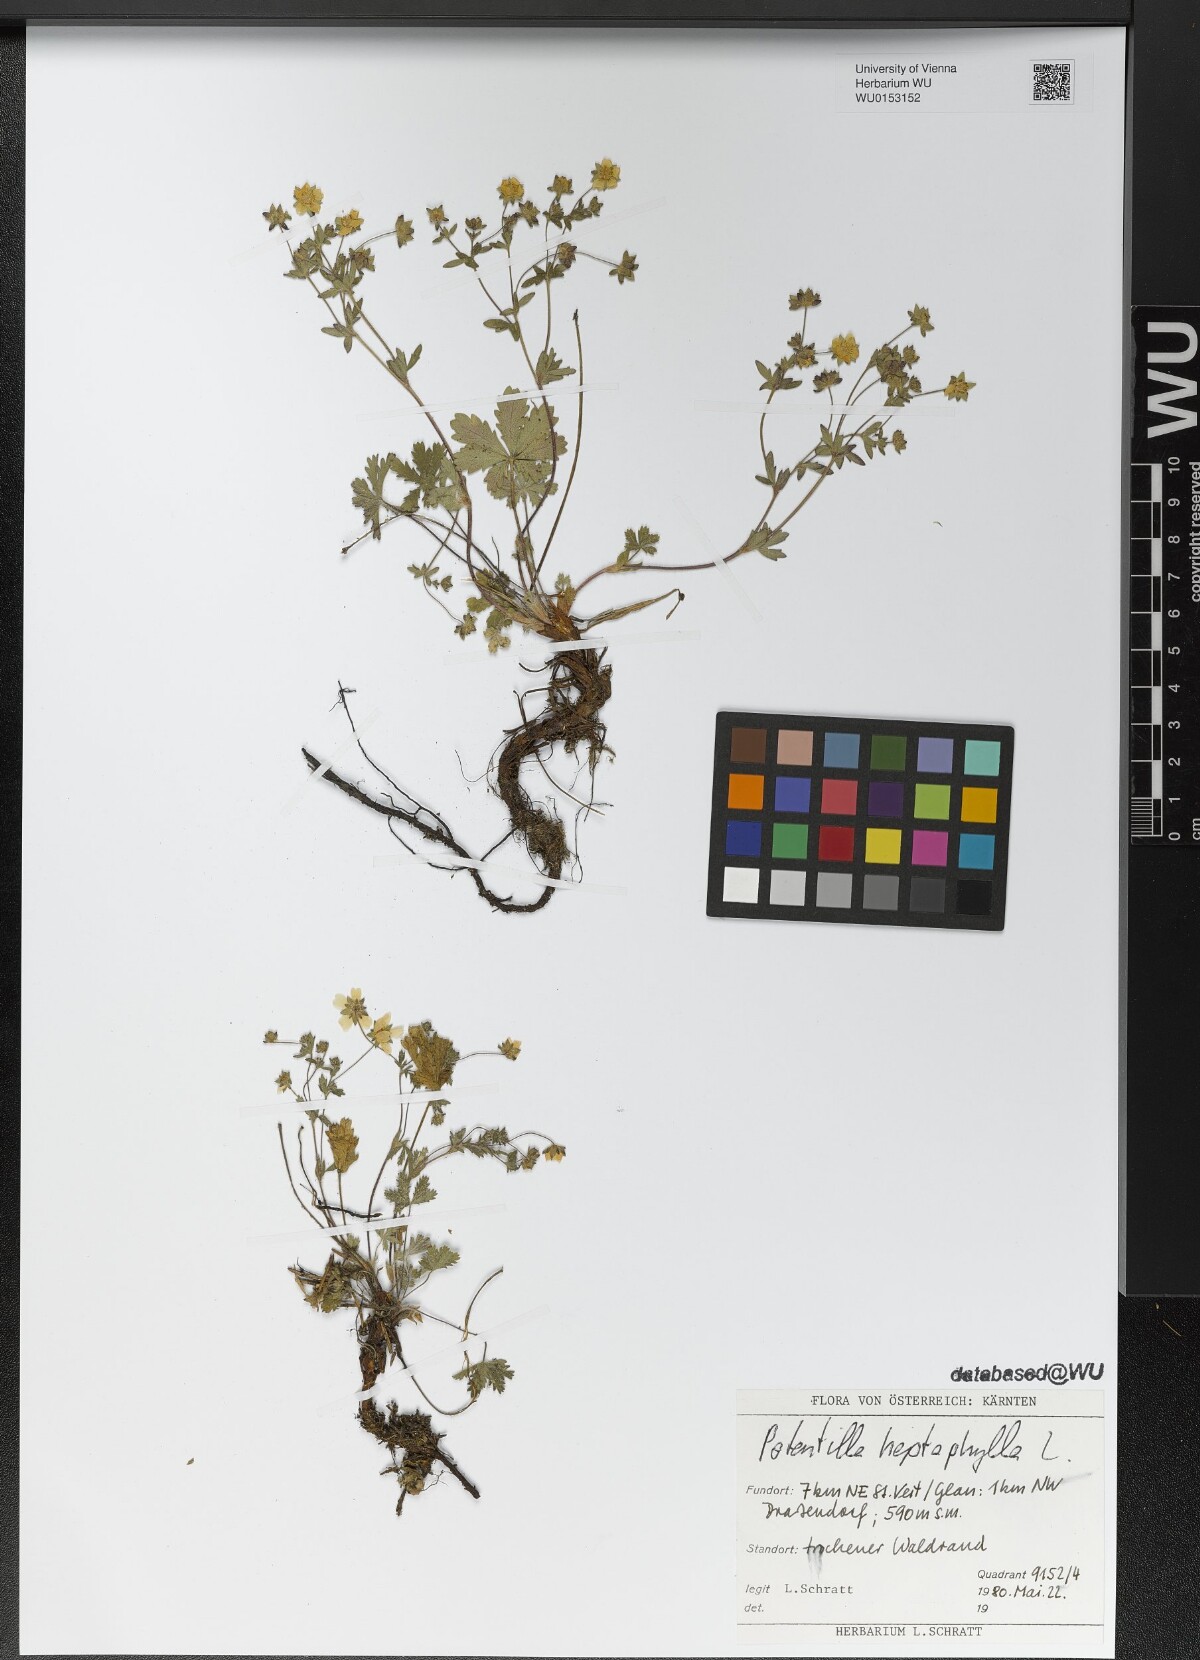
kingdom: Plantae
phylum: Tracheophyta
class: Magnoliopsida
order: Rosales
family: Rosaceae
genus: Potentilla
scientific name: Potentilla heptaphylla
